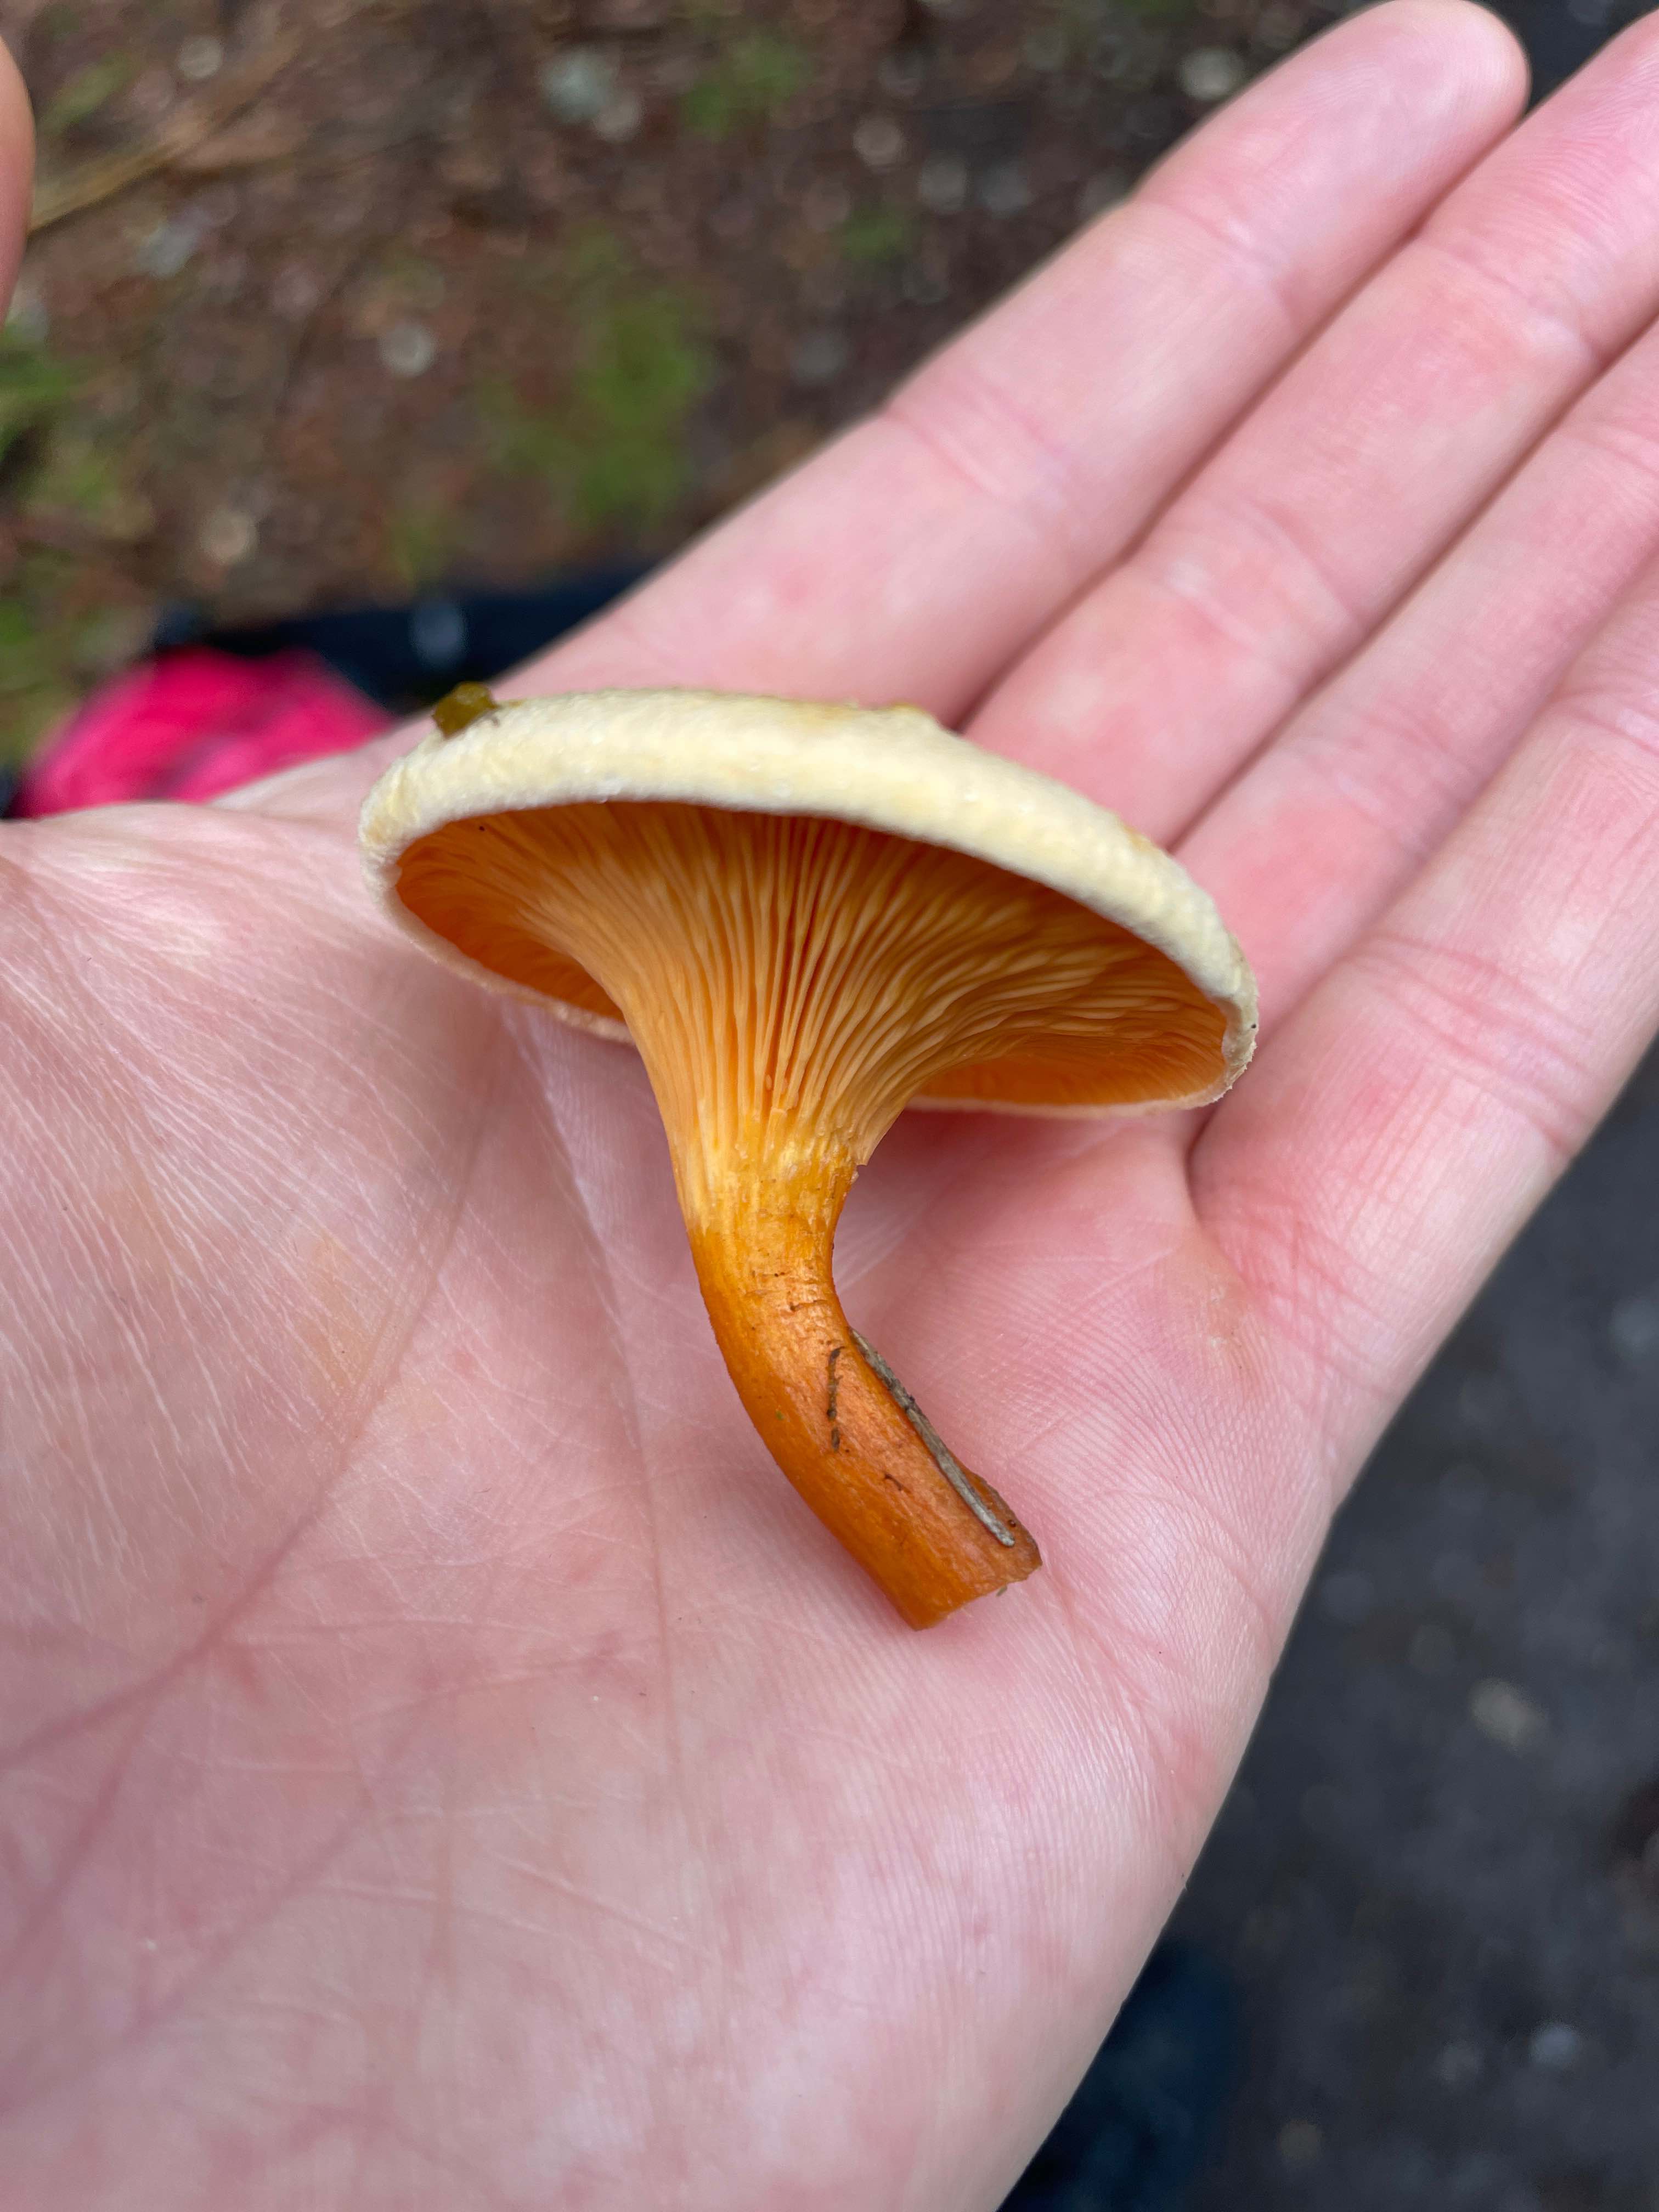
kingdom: Fungi
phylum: Basidiomycota
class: Agaricomycetes
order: Boletales
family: Hygrophoropsidaceae
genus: Hygrophoropsis
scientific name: Hygrophoropsis aurantiaca
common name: almindelig orangekantarel
